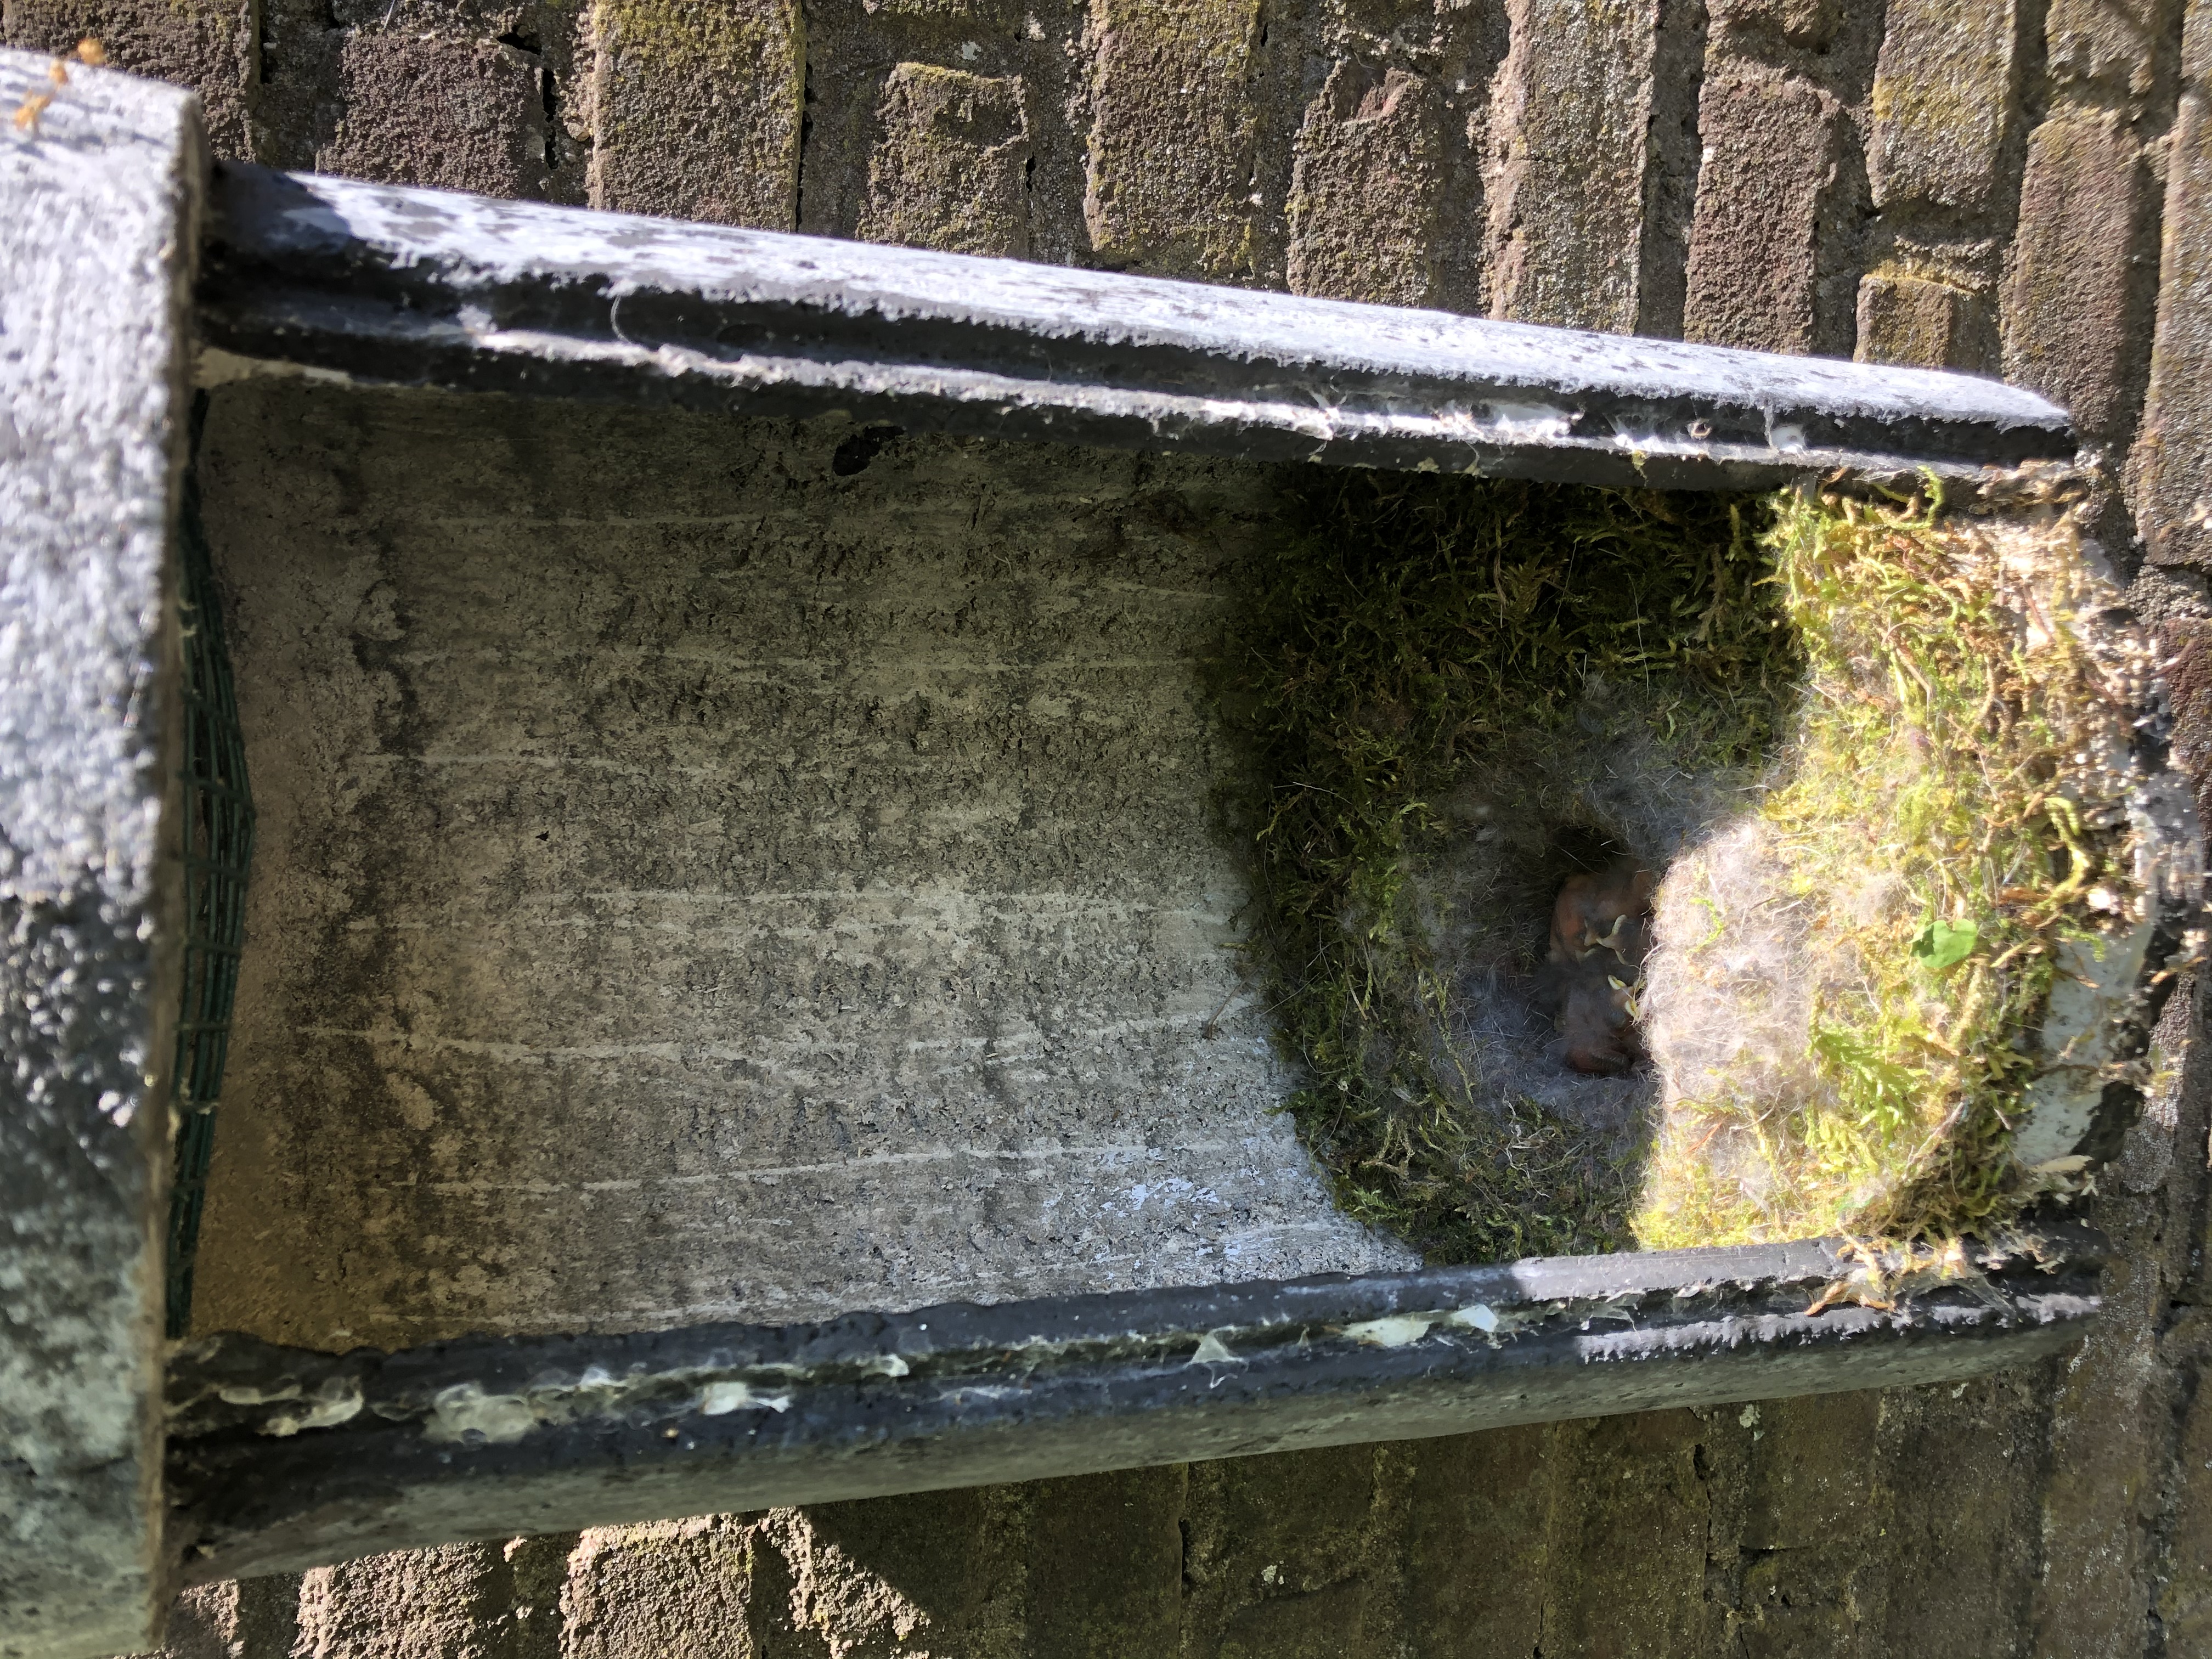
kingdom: Animalia
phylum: Chordata
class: Aves
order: Passeriformes
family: Paridae
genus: Parus
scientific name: Parus major
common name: Great tit
